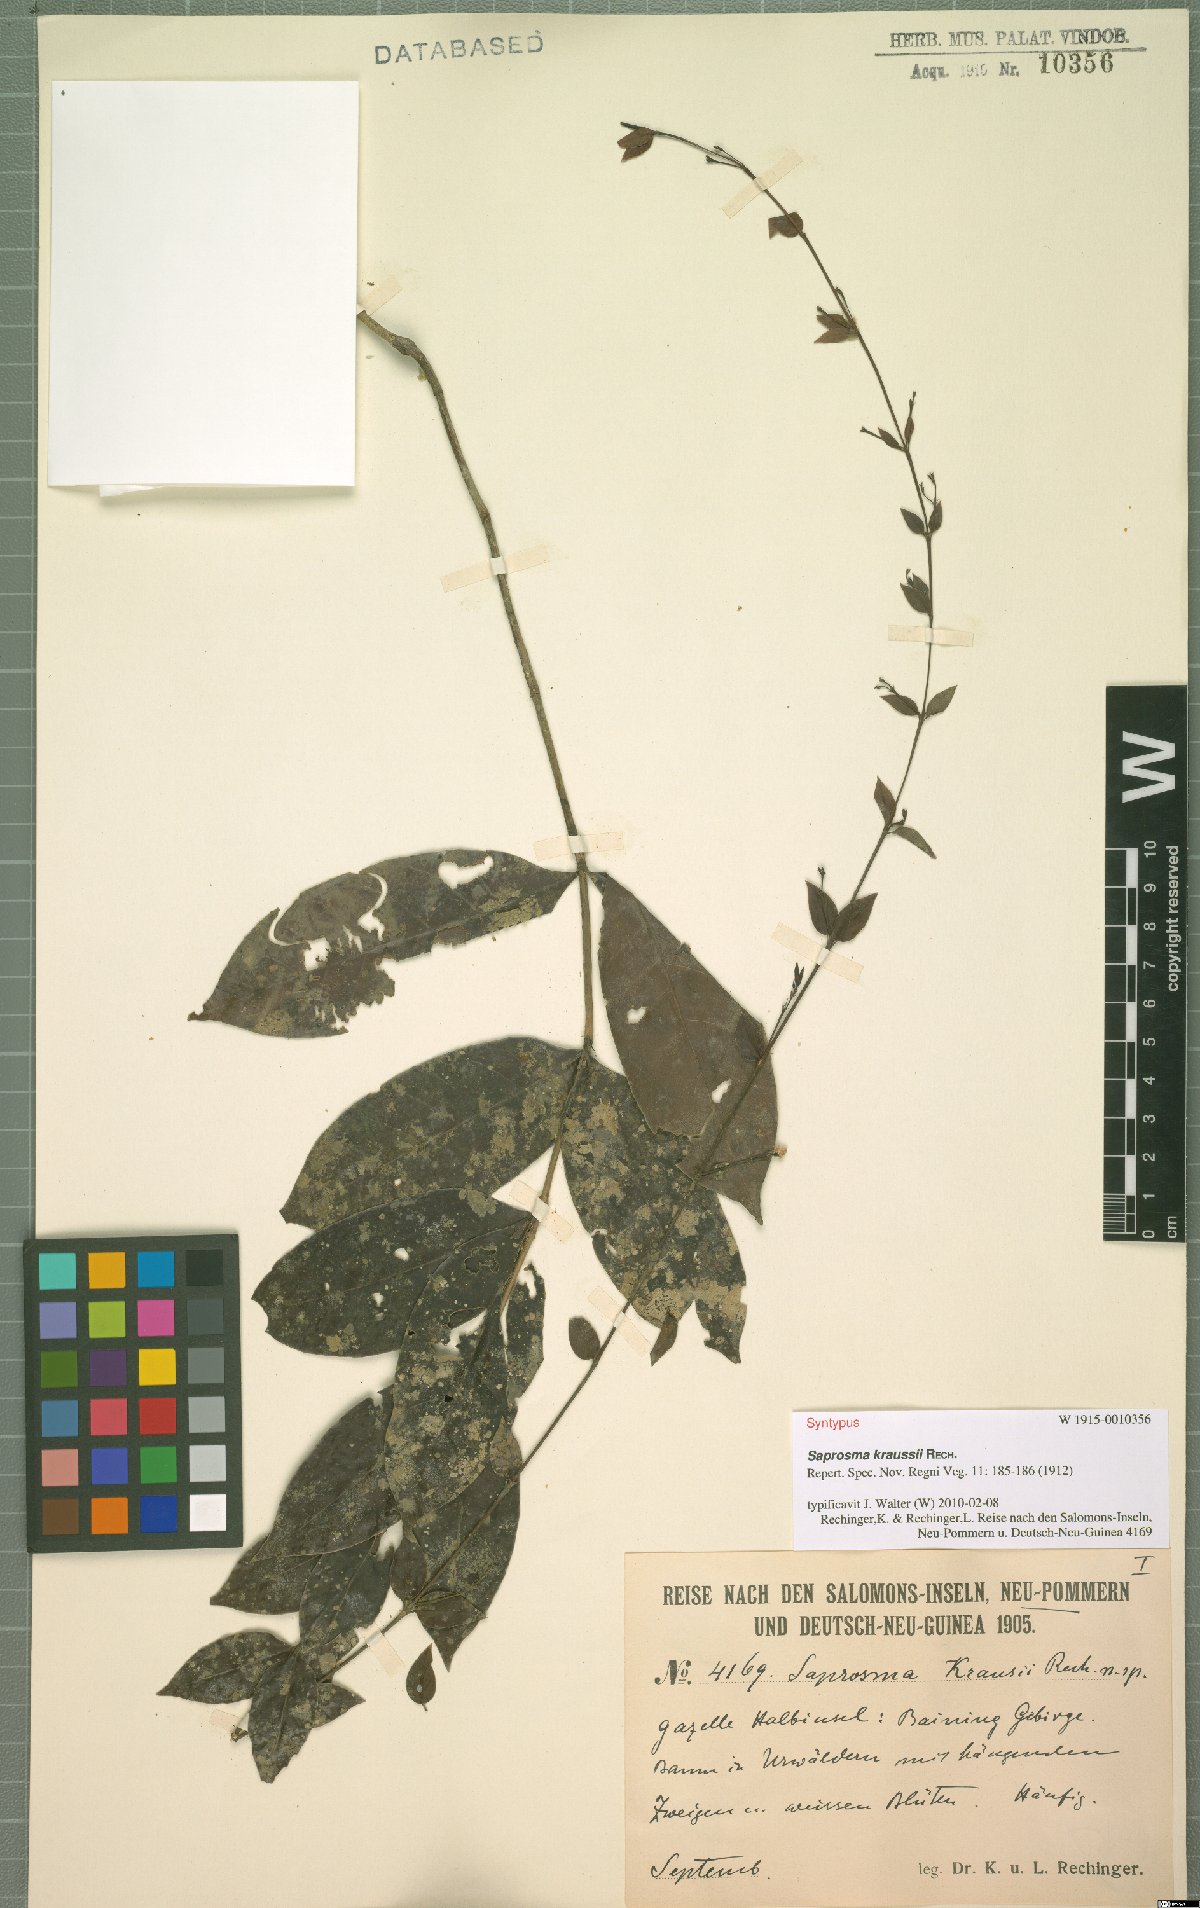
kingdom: Plantae
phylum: Tracheophyta
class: Magnoliopsida
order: Gentianales
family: Rubiaceae
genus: Saprosma
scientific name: Saprosma kraussii
